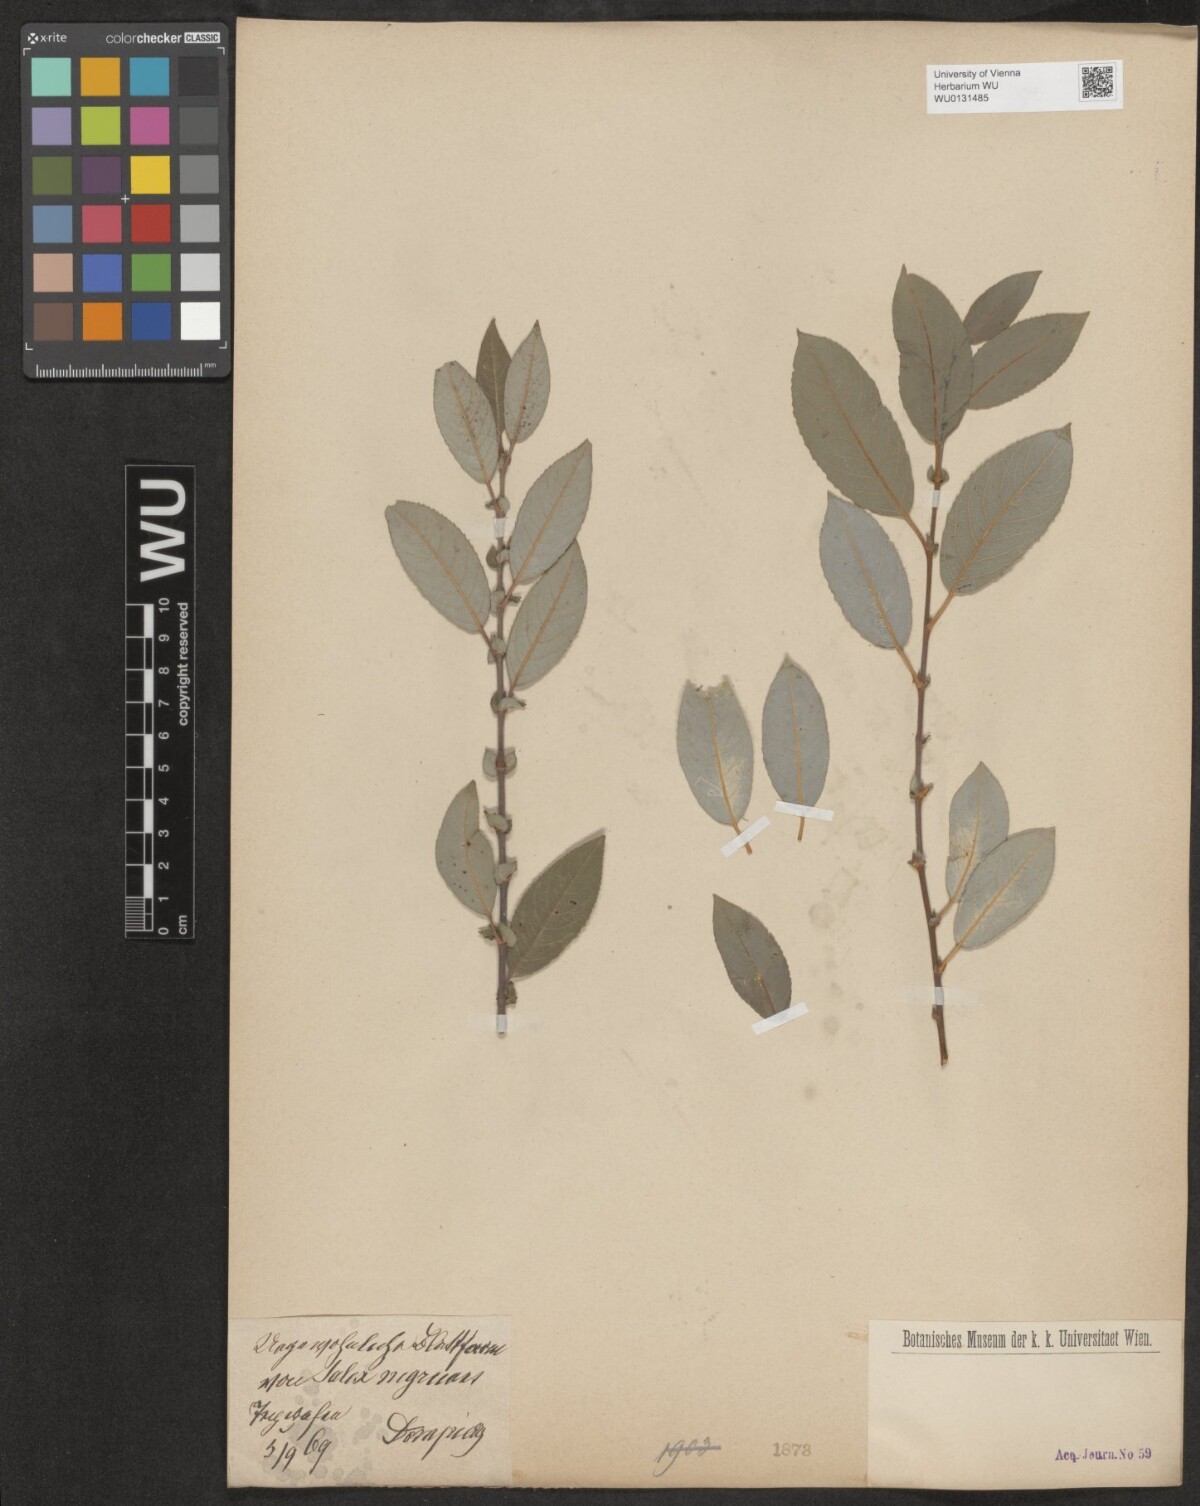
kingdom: Plantae
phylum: Tracheophyta
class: Magnoliopsida
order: Malpighiales
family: Salicaceae
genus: Salix
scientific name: Salix myrsinifolia
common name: Dark-leaved willow
